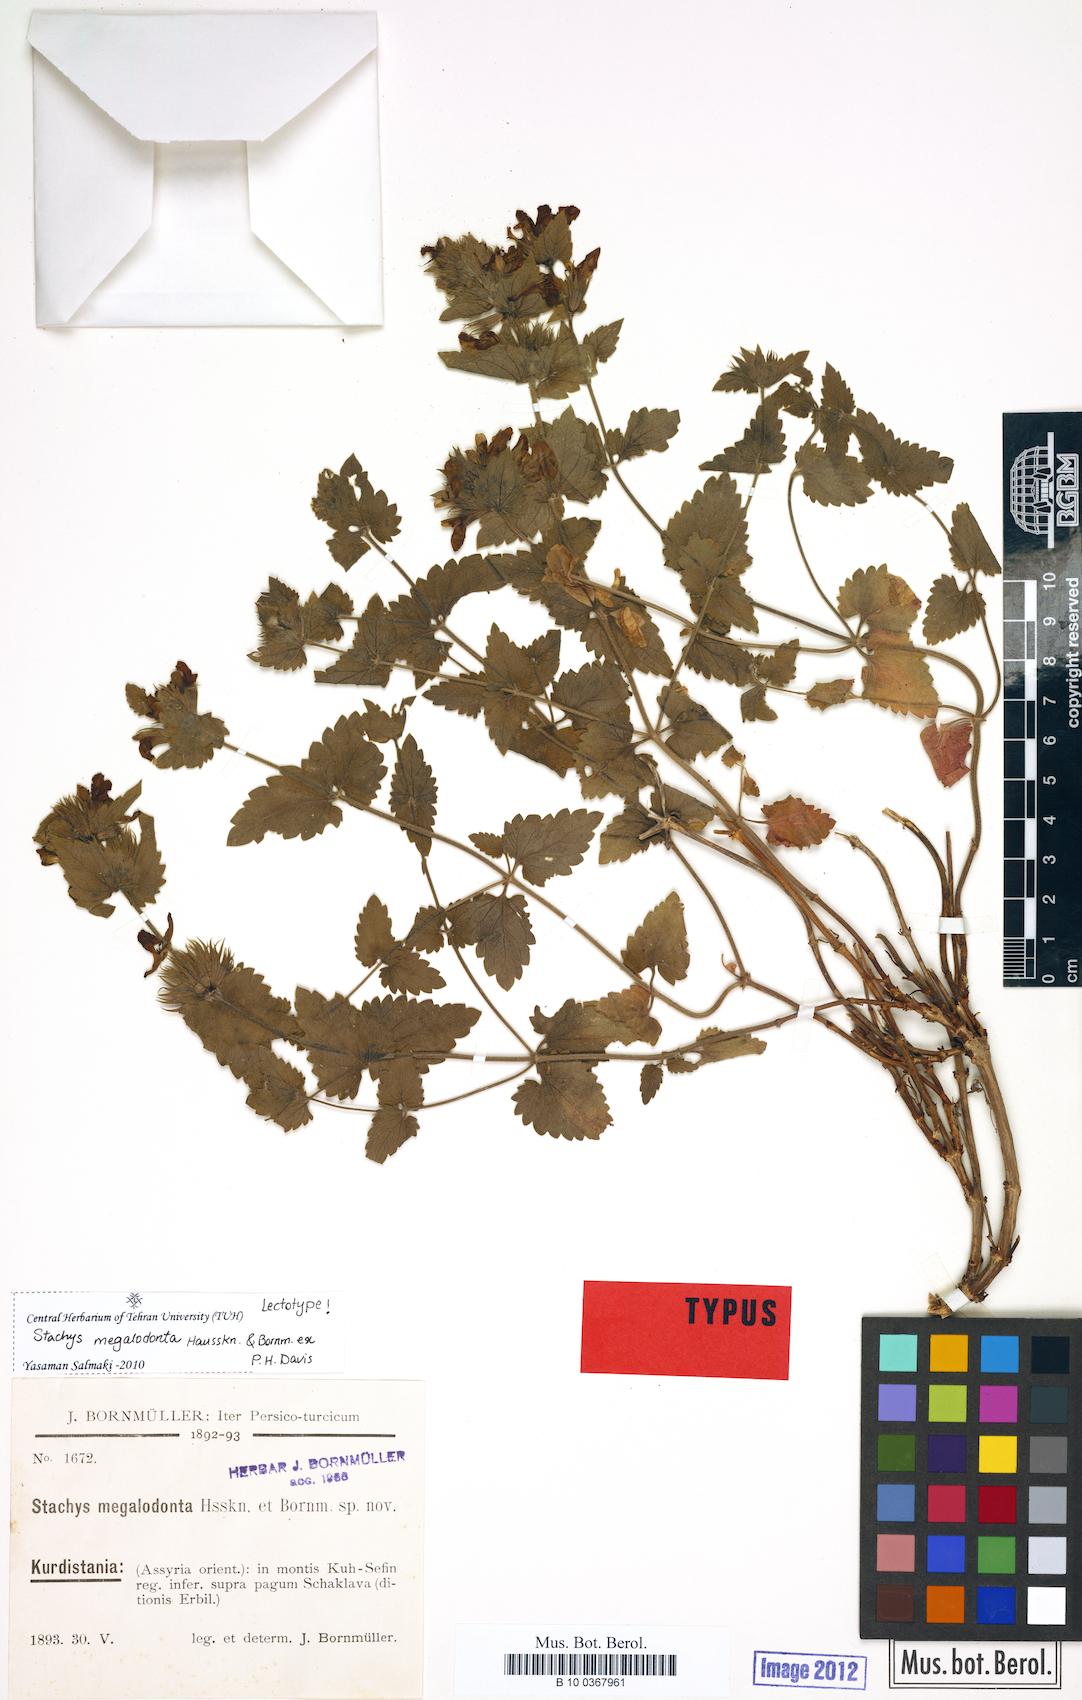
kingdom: Plantae
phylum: Tracheophyta
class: Magnoliopsida
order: Lamiales
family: Lamiaceae
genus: Stachys
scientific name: Stachys megalodonta
